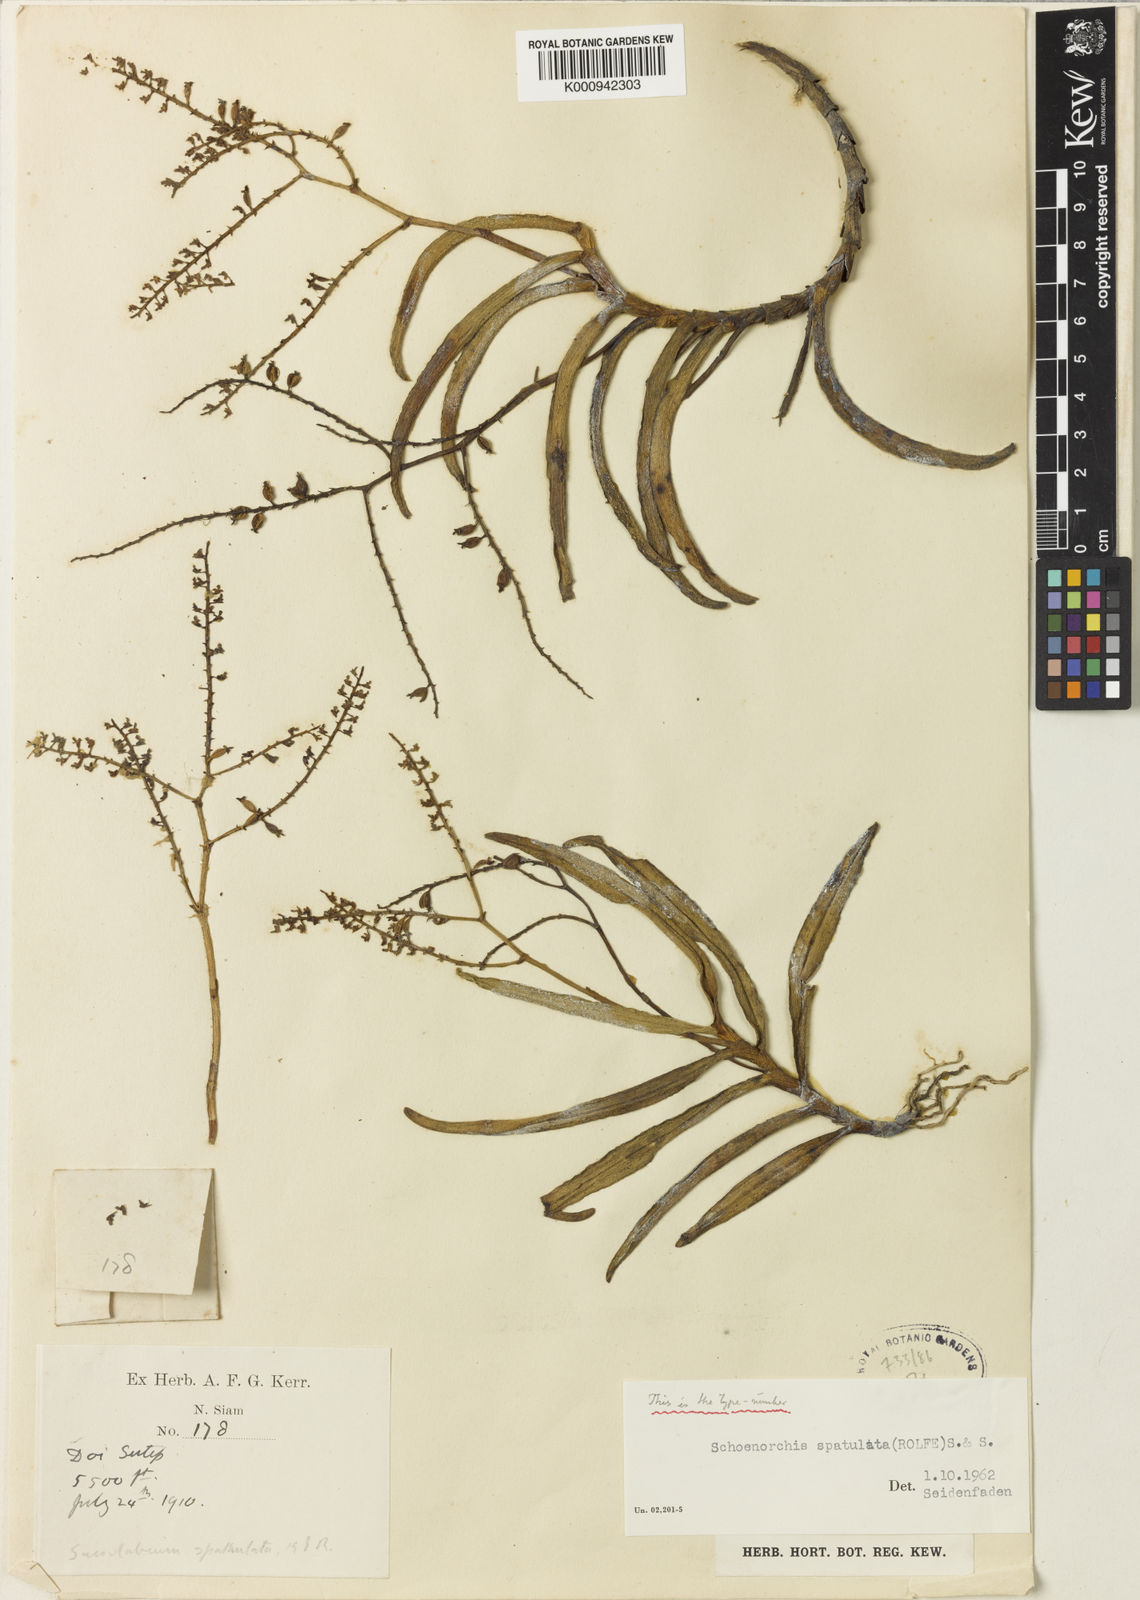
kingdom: Plantae
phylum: Tracheophyta
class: Liliopsida
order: Asparagales
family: Orchidaceae
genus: Schoenorchis
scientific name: Schoenorchis gemmata
